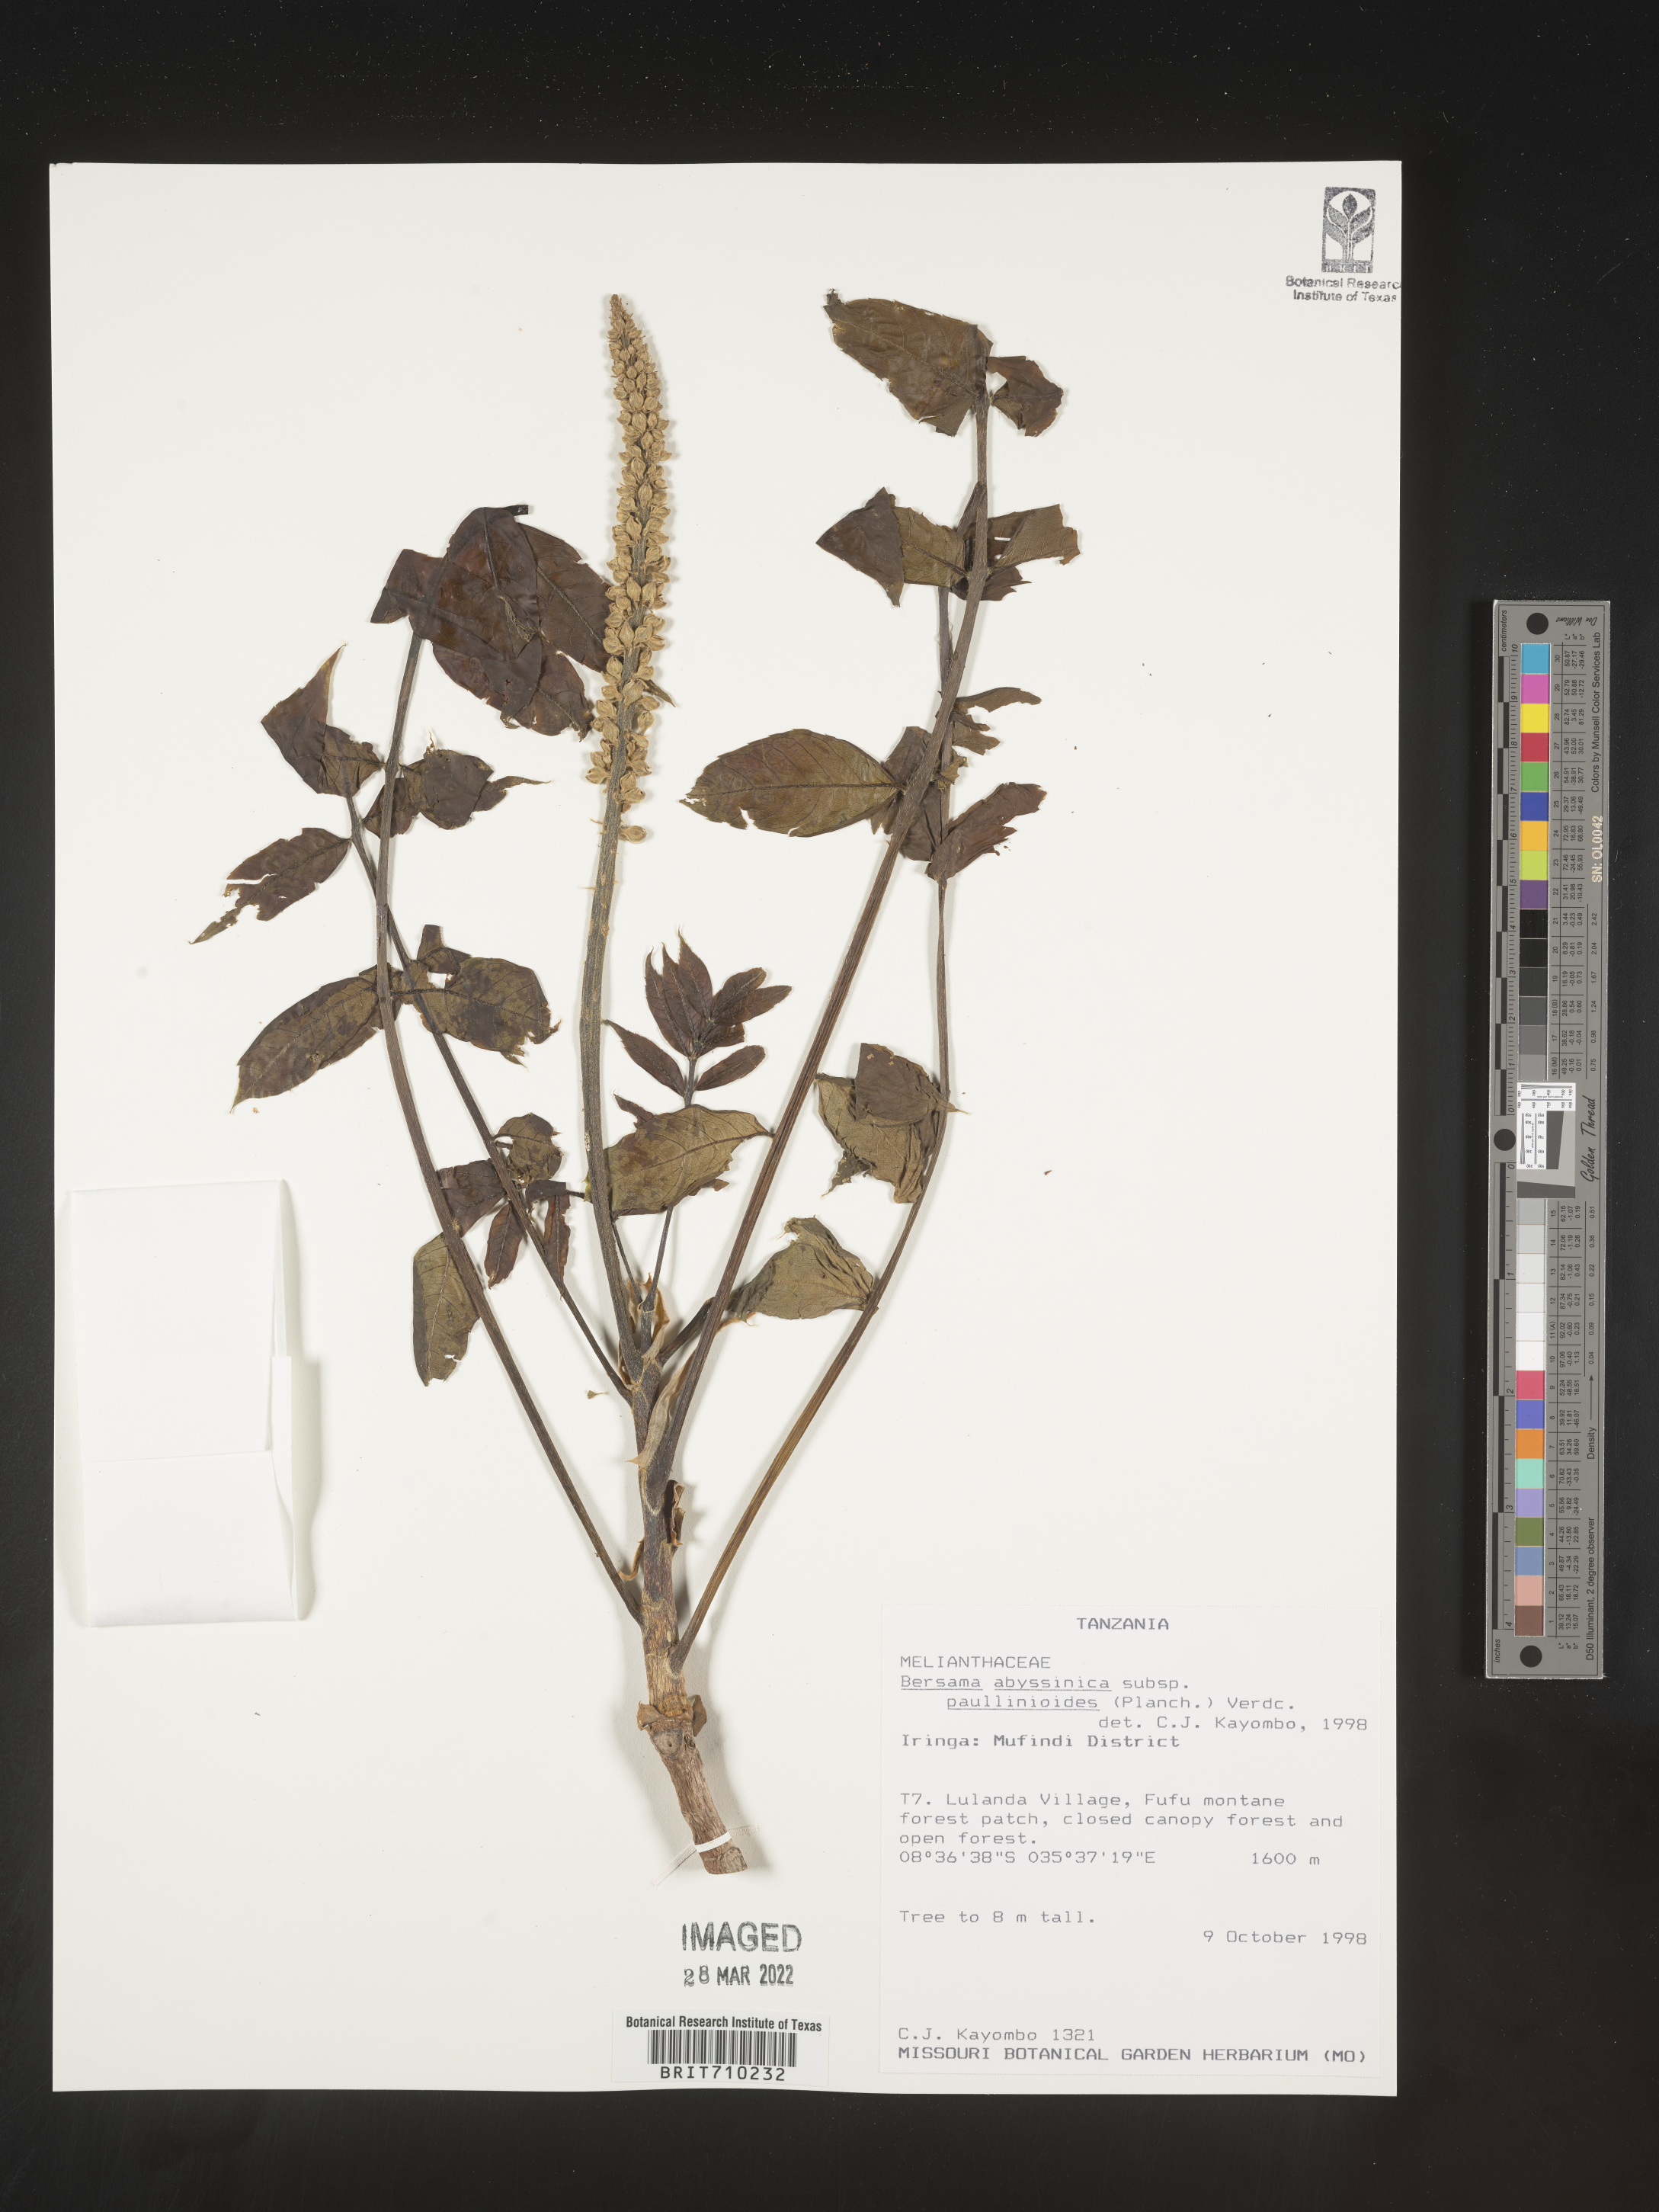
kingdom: Plantae
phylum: Tracheophyta
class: Magnoliopsida
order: Geraniales
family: Melianthaceae
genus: Bersama
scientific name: Bersama
